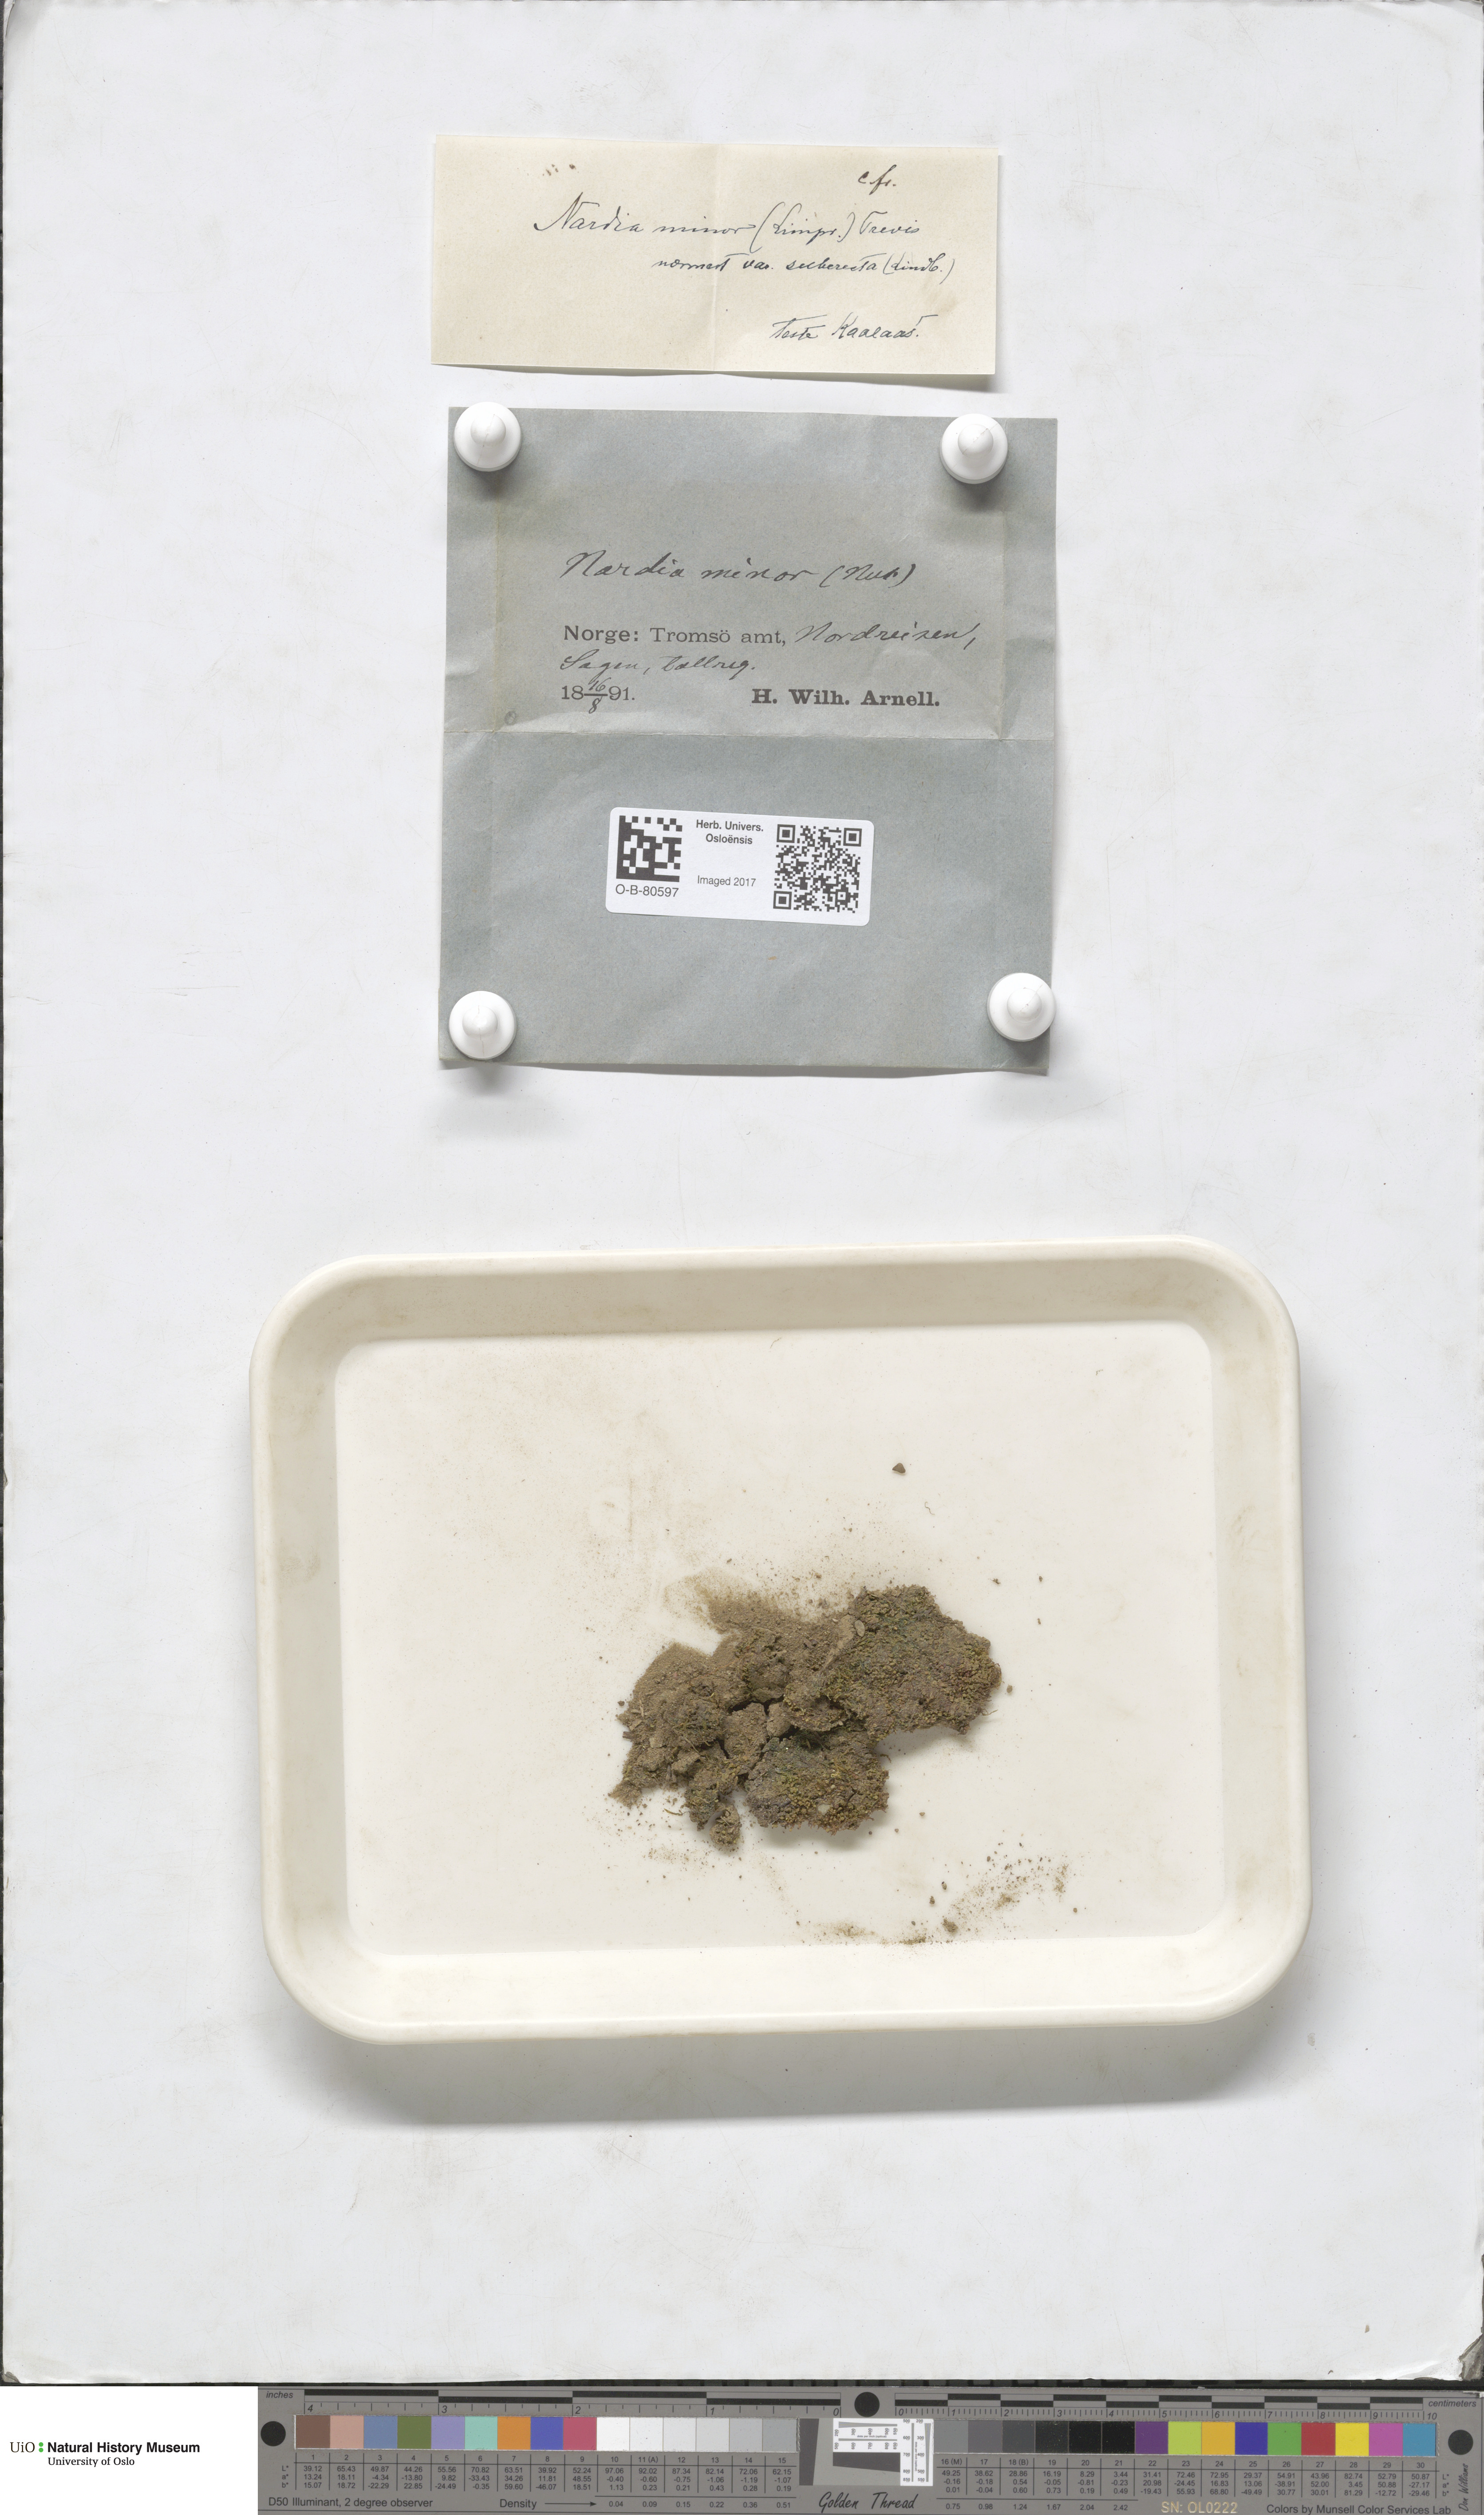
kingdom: Plantae
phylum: Marchantiophyta
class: Jungermanniopsida
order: Jungermanniales
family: Gymnomitriaceae
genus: Nardia
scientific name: Nardia geoscyphus
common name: Earth-cup flapwort
